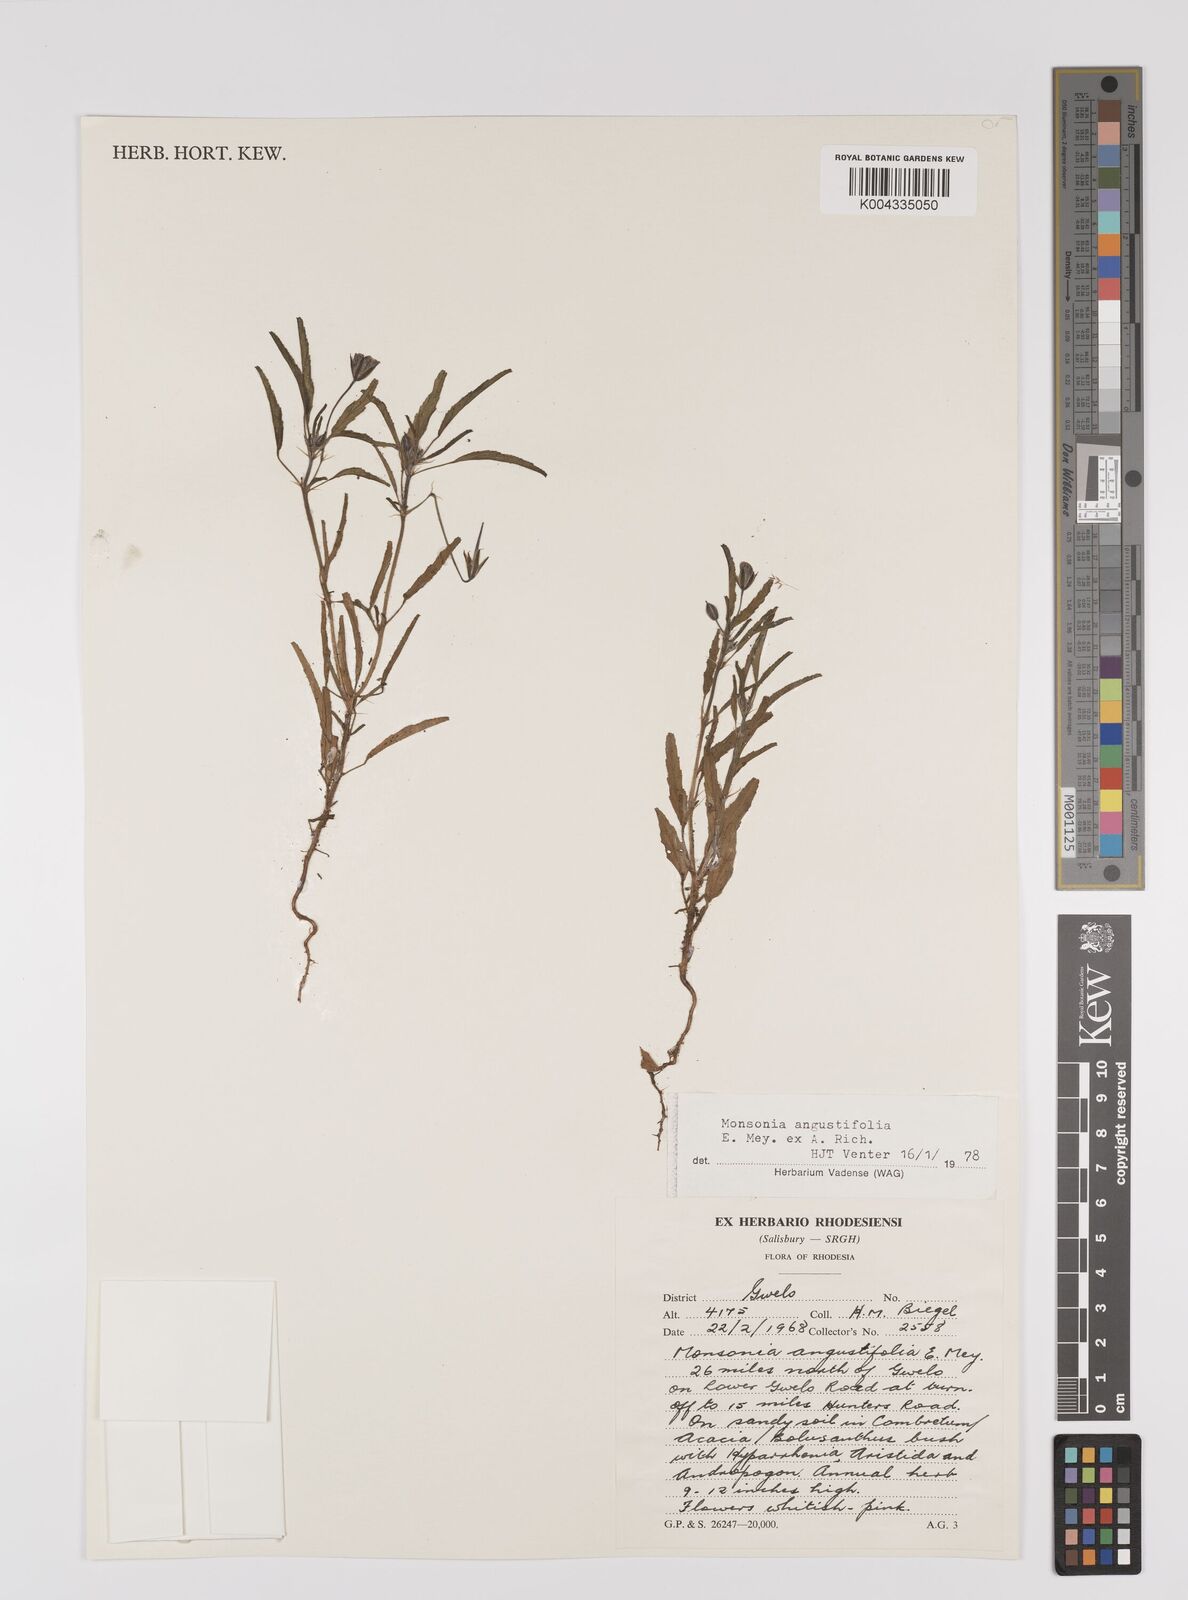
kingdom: Plantae
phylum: Tracheophyta
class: Magnoliopsida
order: Geraniales
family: Geraniaceae
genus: Monsonia
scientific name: Monsonia angustifolia
